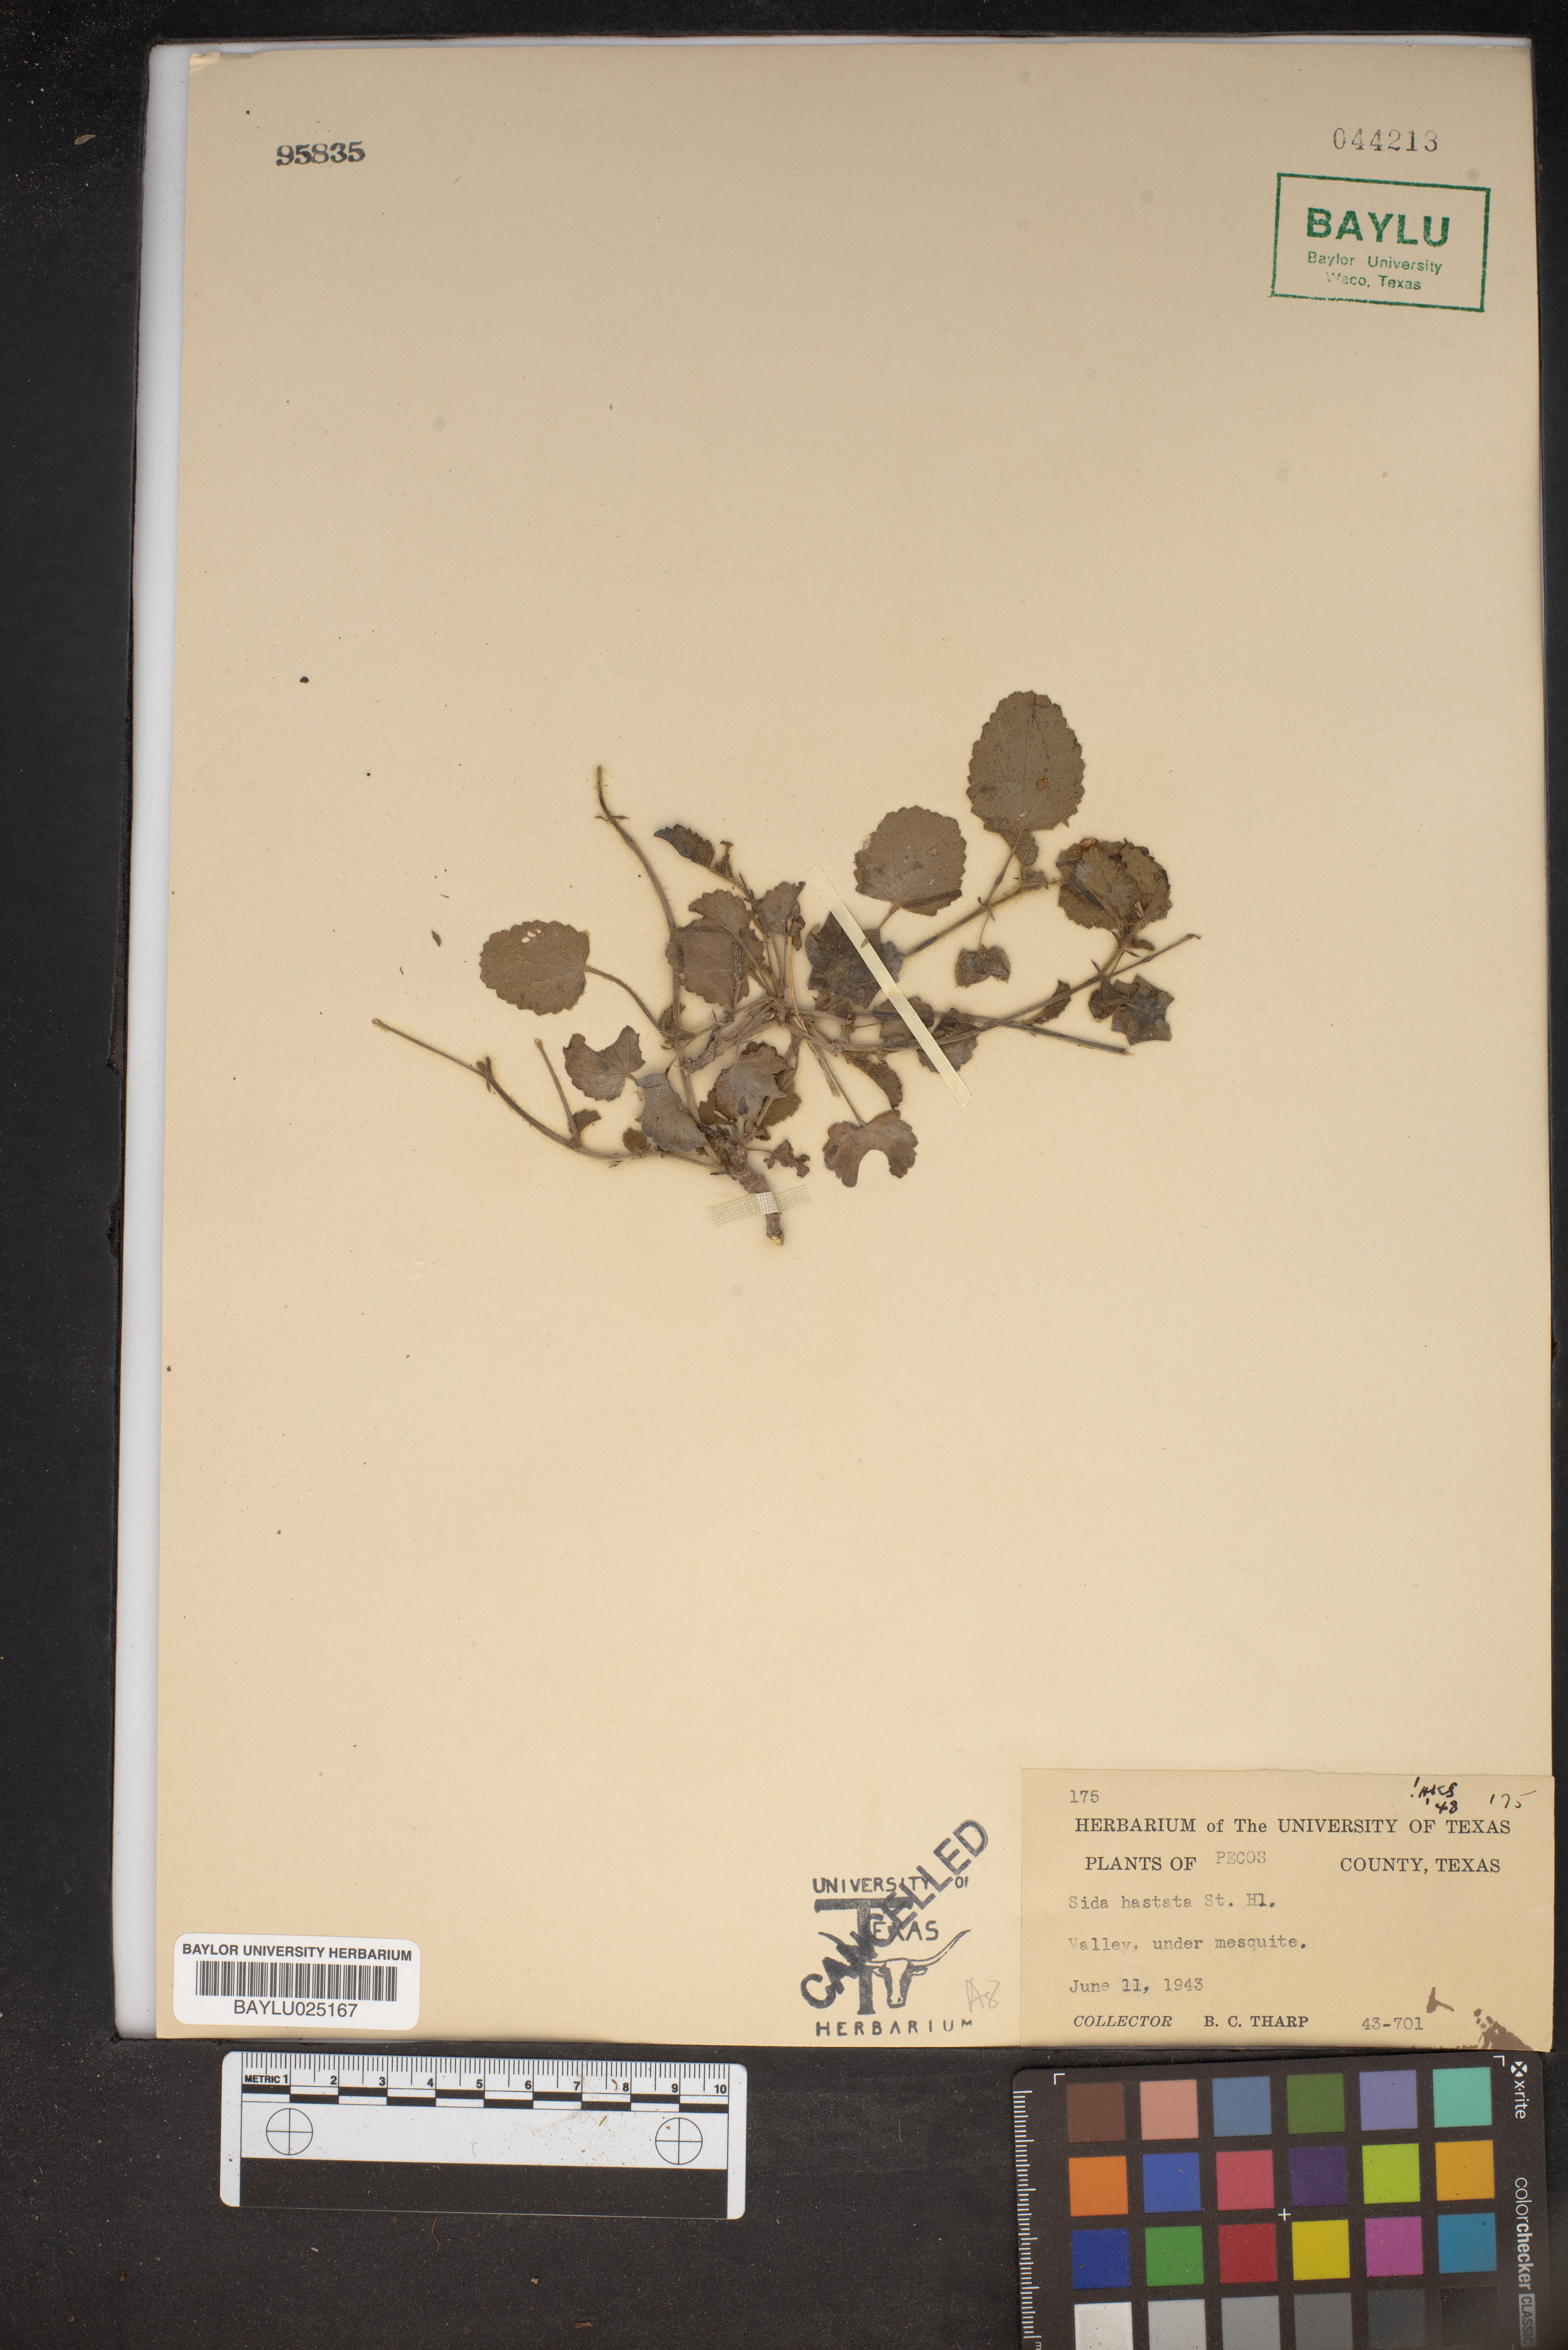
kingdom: Plantae
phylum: Tracheophyta
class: Magnoliopsida
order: Malvales
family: Malvaceae
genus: Sida
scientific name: Sida hastata
